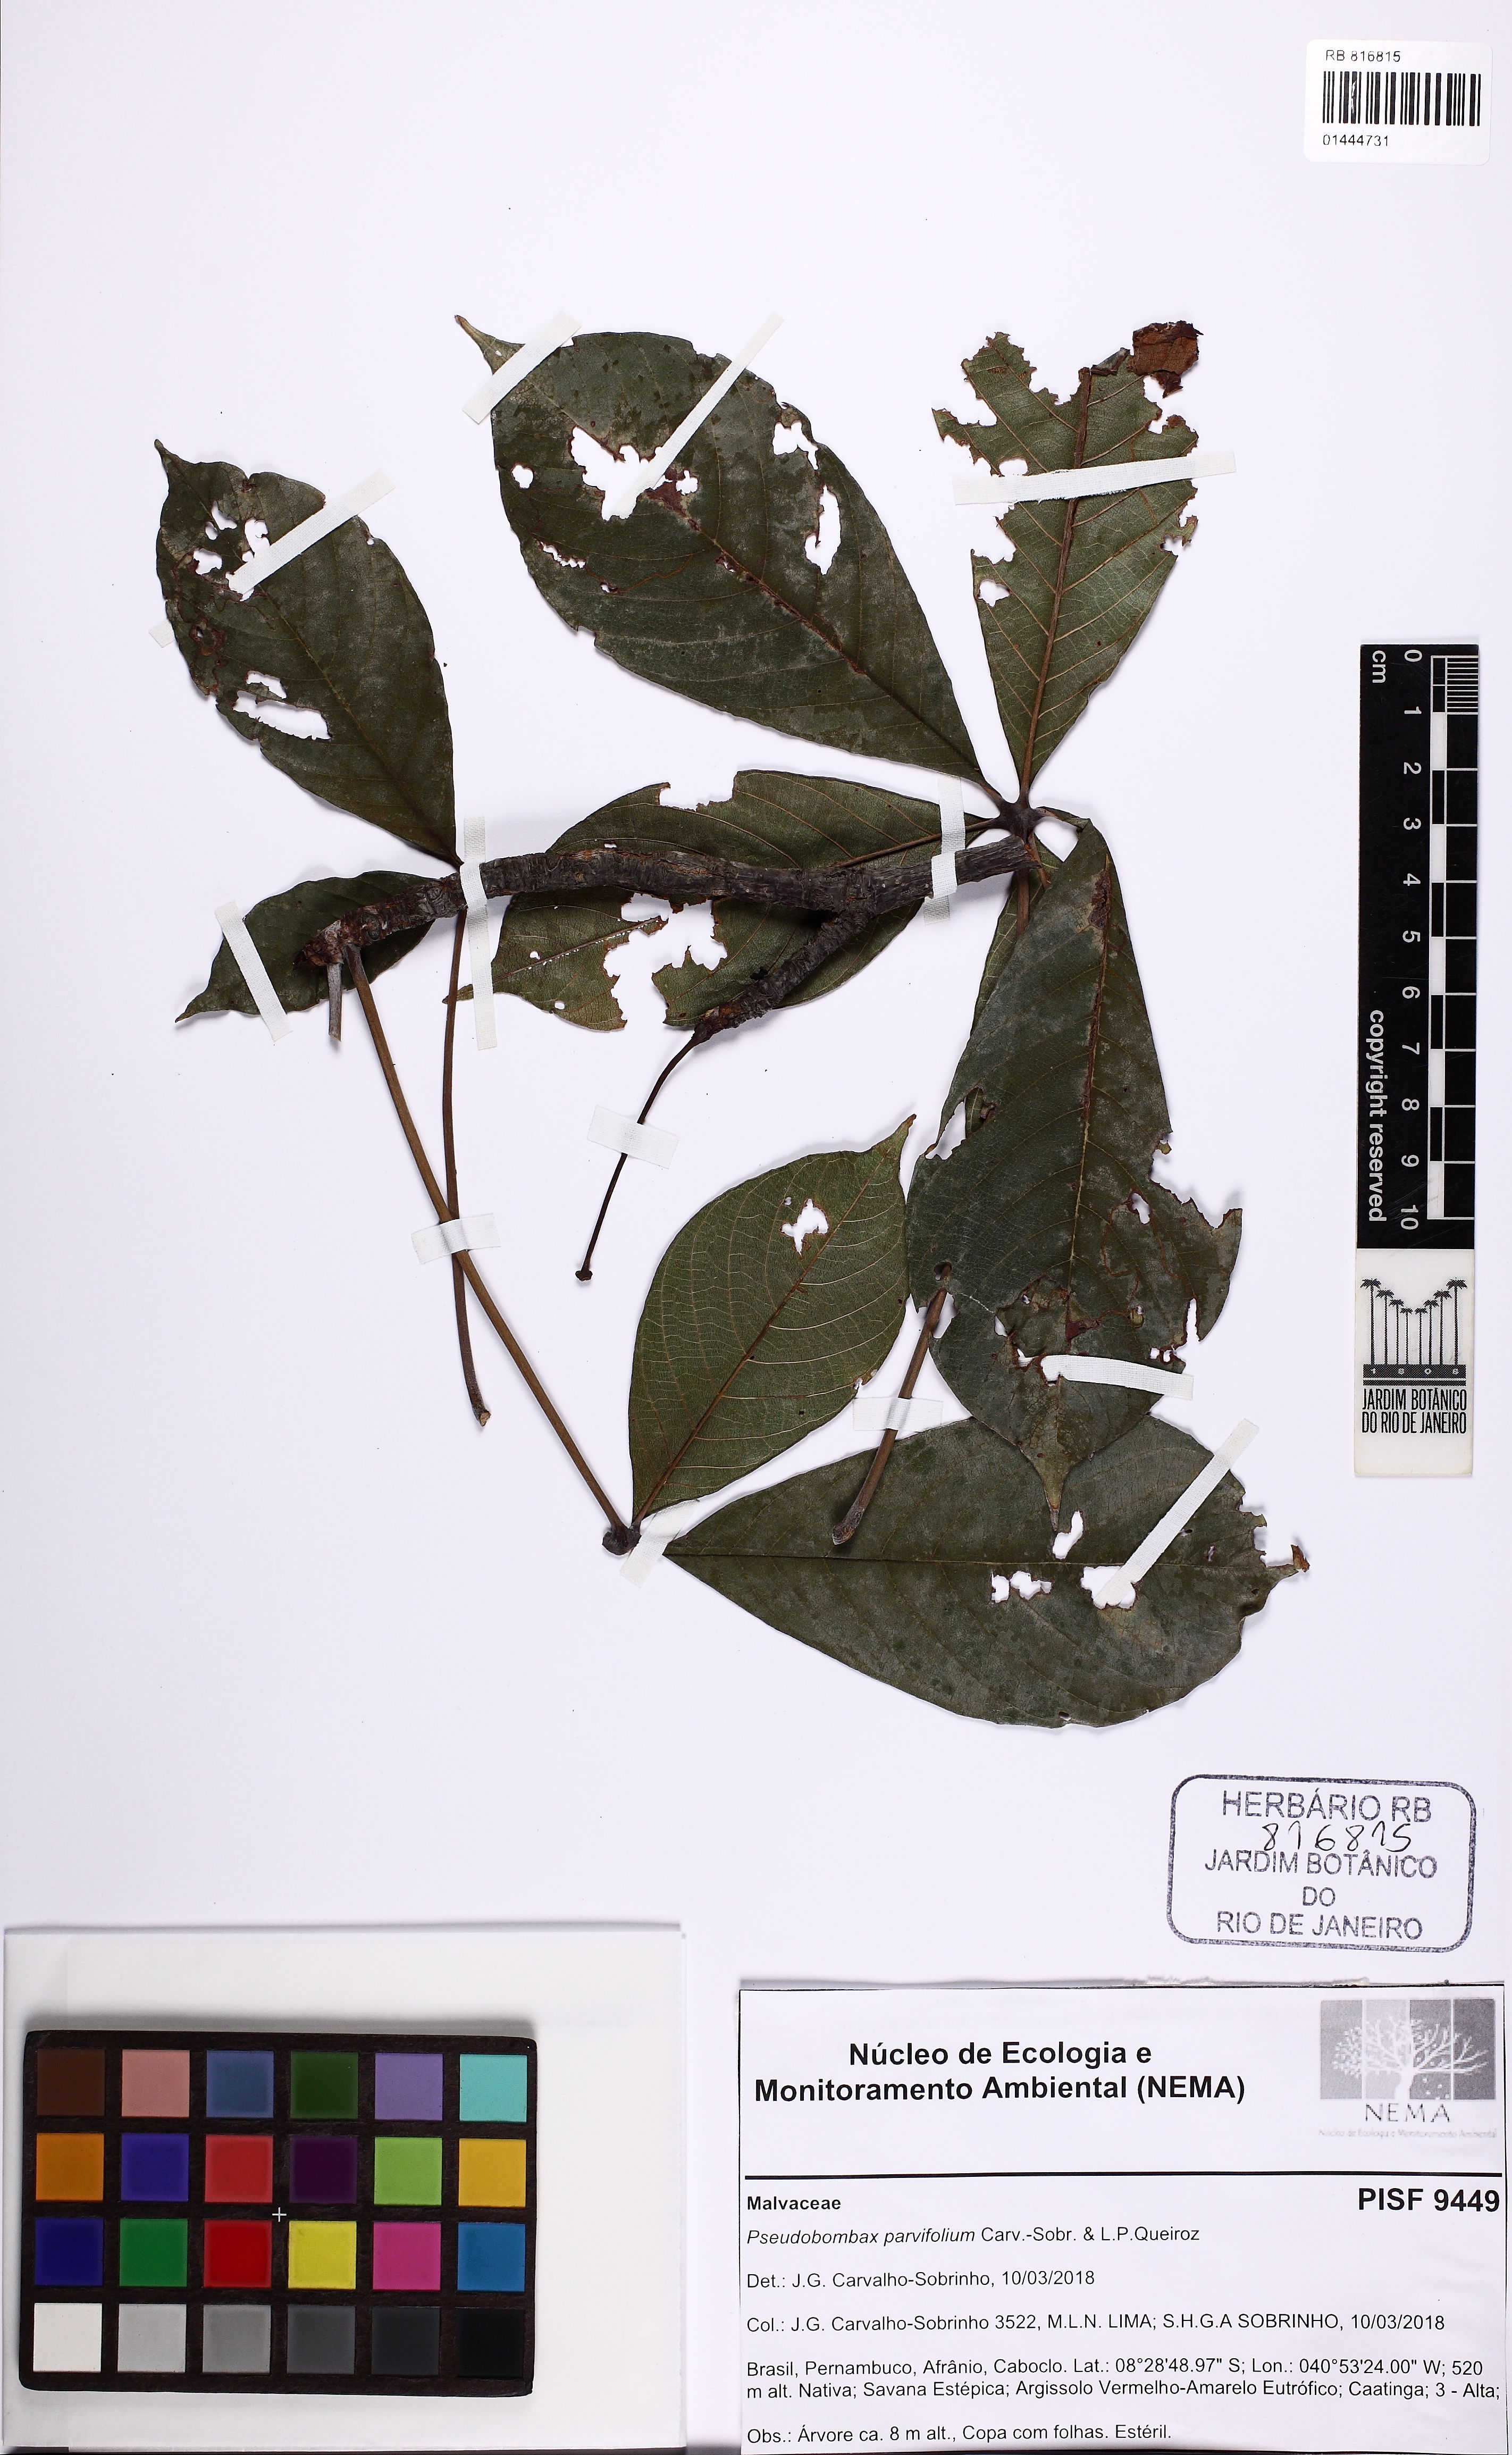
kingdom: Plantae
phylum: Tracheophyta
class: Magnoliopsida
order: Malvales
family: Malvaceae
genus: Pseudobombax
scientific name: Pseudobombax parvifolium
